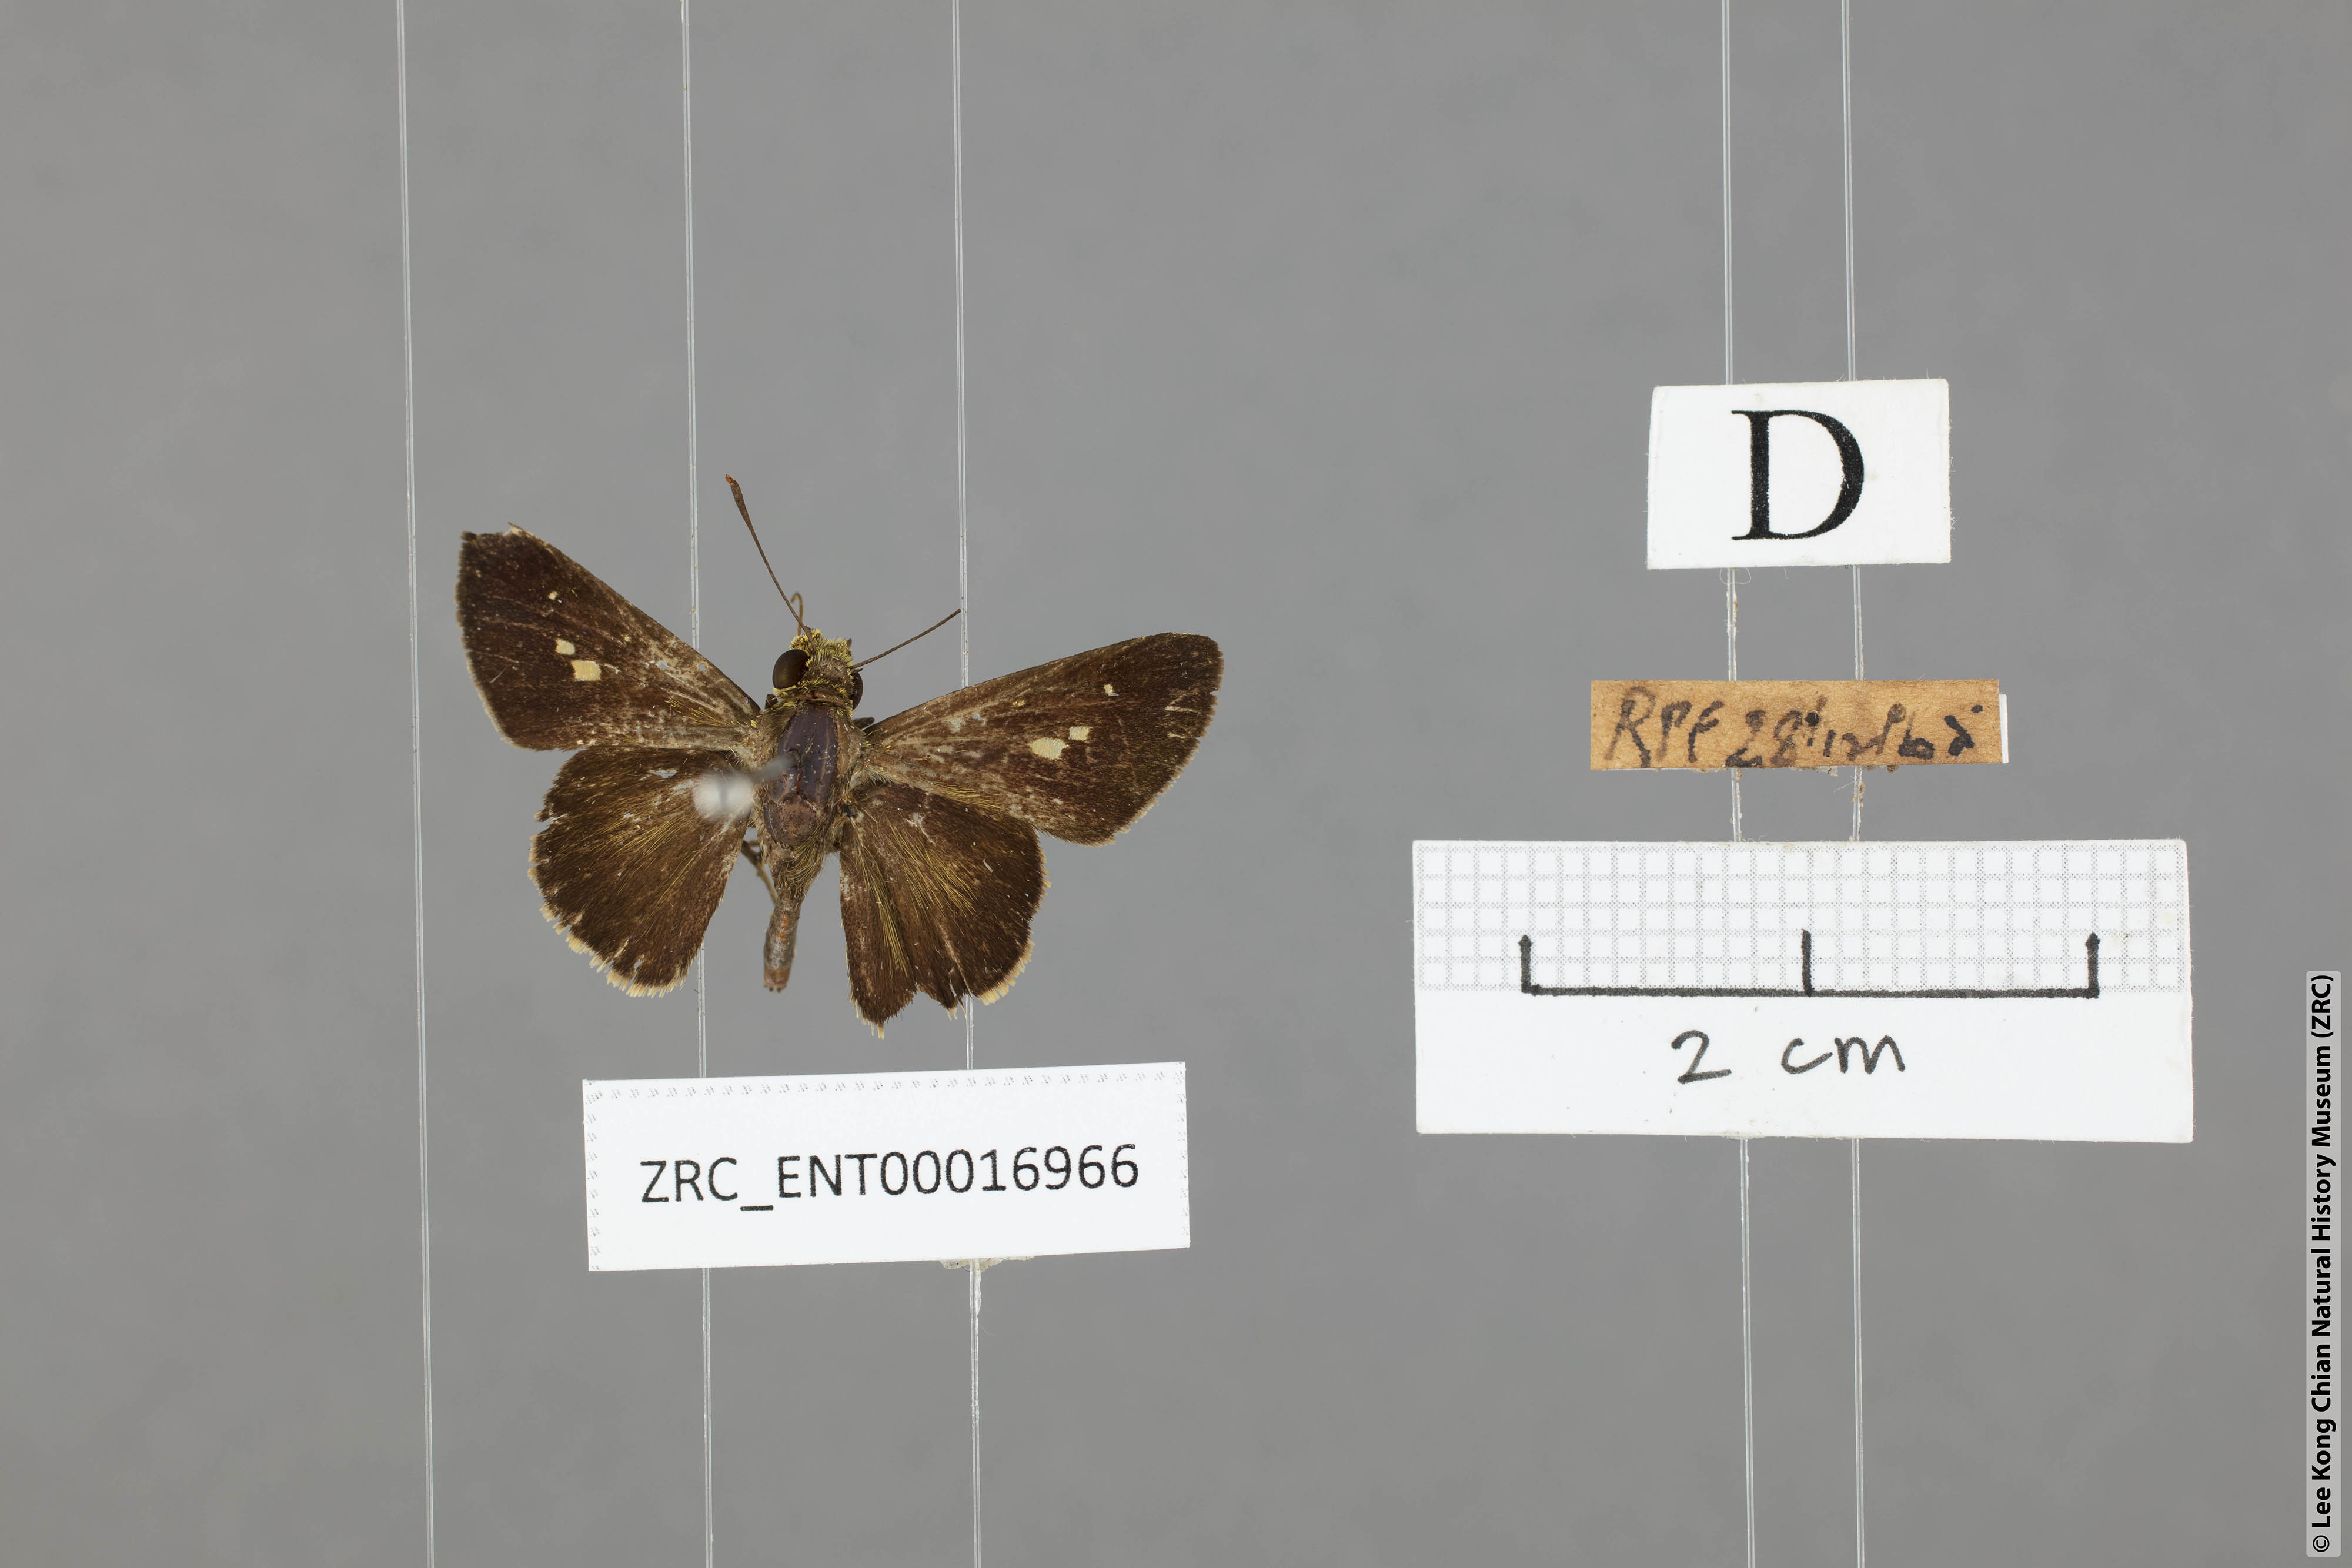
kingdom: Animalia
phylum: Arthropoda
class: Insecta
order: Lepidoptera
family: Hesperiidae
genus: Halpe
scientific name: Halpe auriferus
